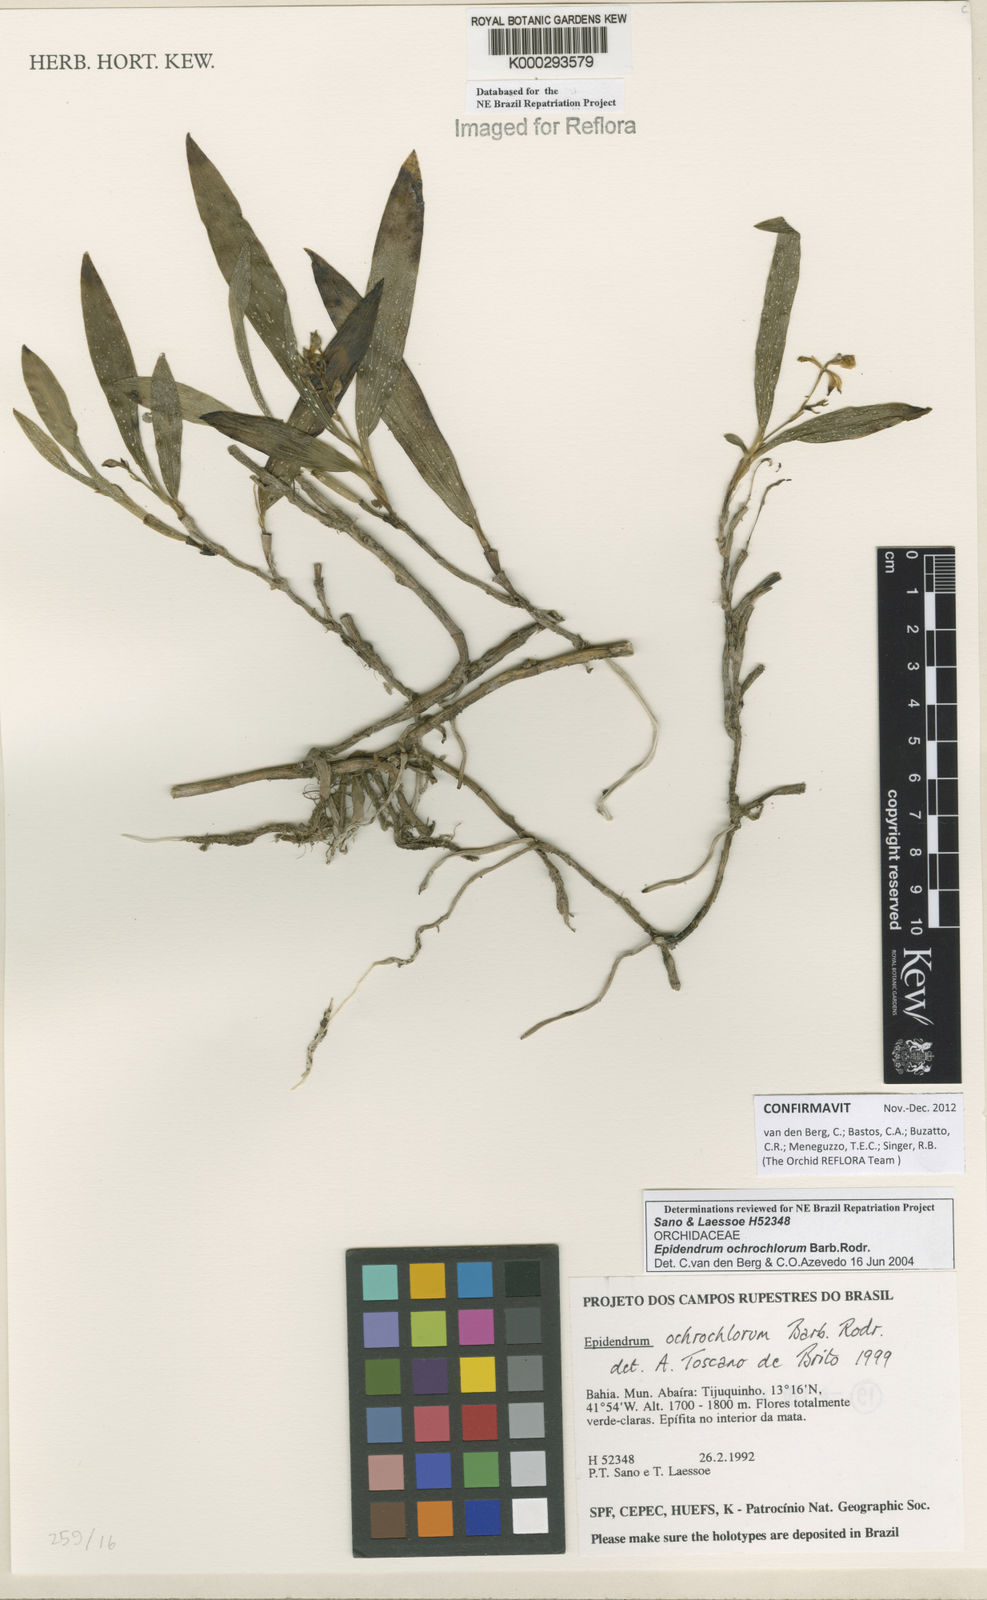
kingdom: Plantae
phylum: Tracheophyta
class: Liliopsida
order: Asparagales
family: Orchidaceae
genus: Epidendrum
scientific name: Epidendrum proligerum
